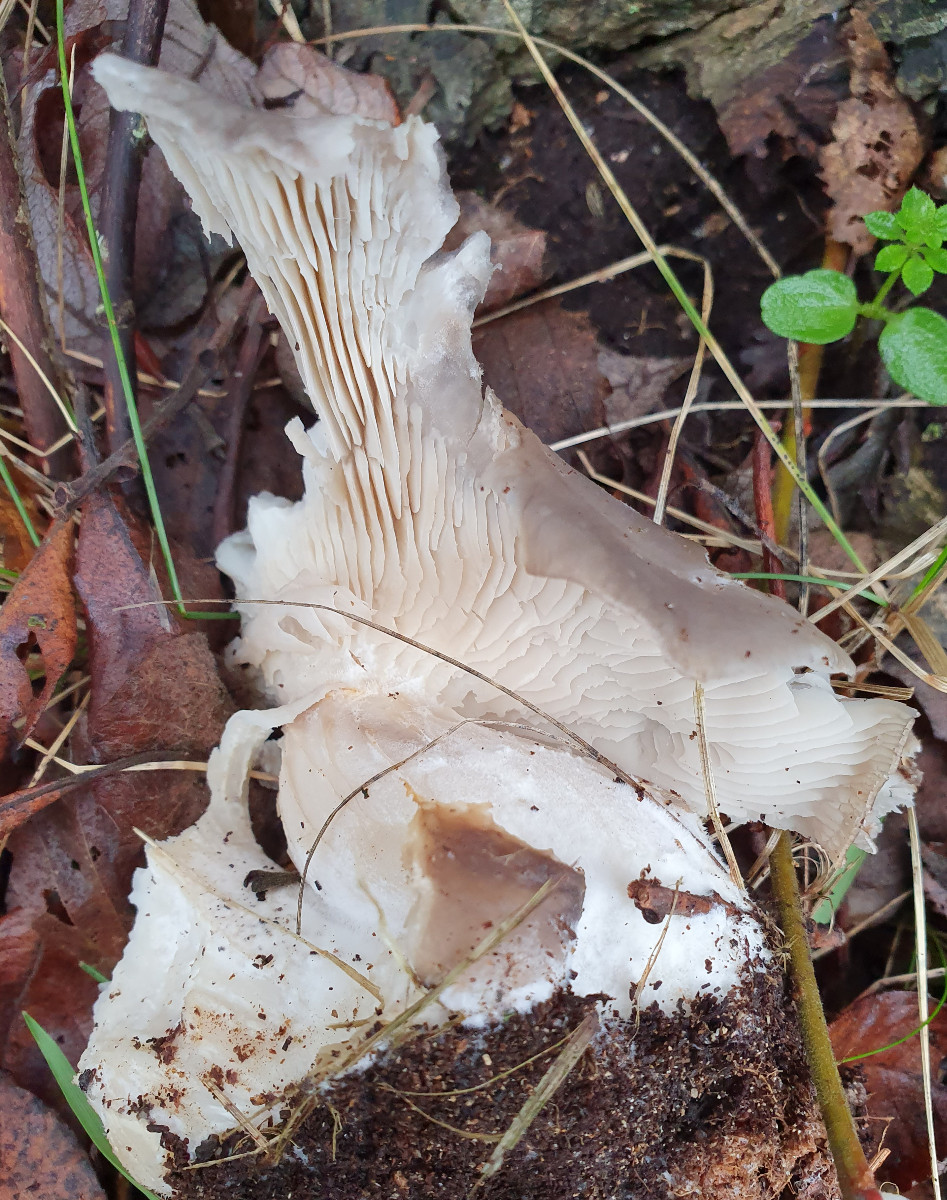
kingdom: Fungi
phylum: Basidiomycota
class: Agaricomycetes
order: Agaricales
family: Pleurotaceae
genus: Pleurotus
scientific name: Pleurotus ostreatus
